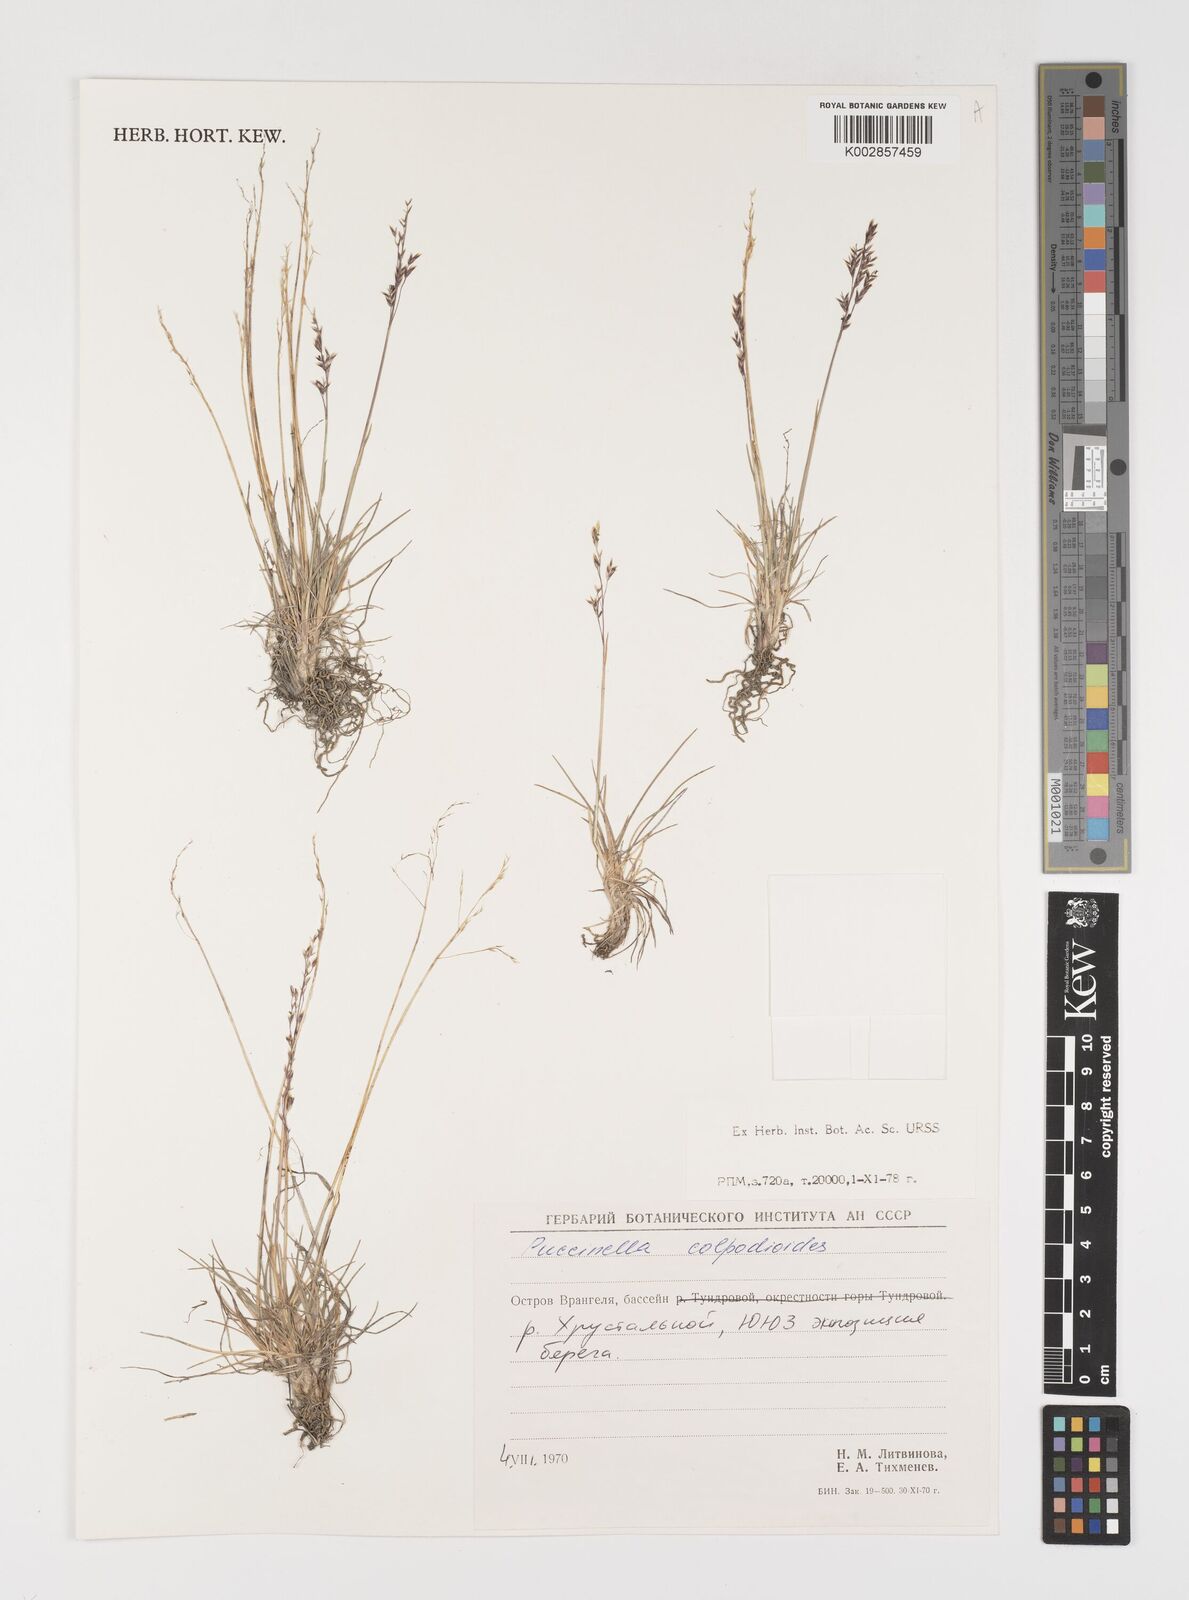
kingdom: Plantae
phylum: Tracheophyta
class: Liliopsida
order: Poales
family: Poaceae
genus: Puccinellia
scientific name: Puccinellia wrightii
